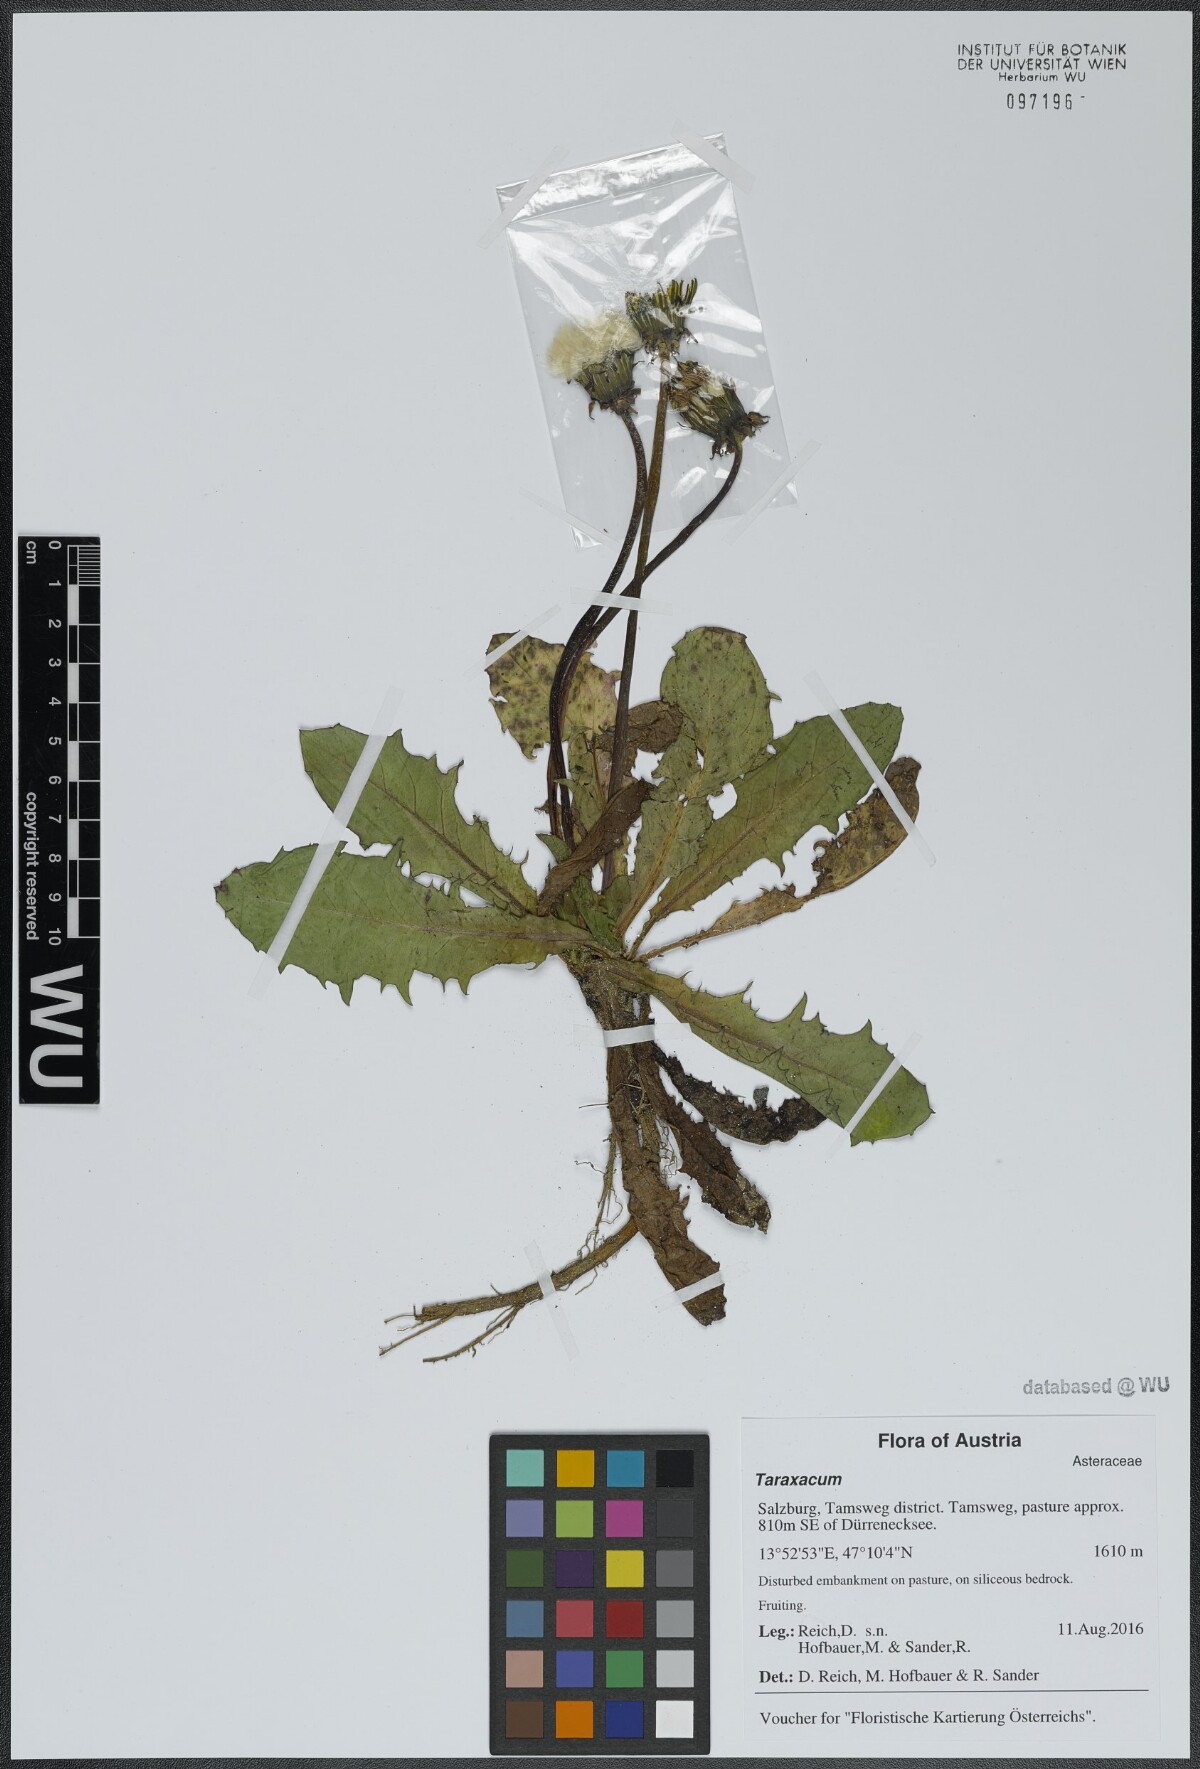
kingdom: Plantae
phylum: Tracheophyta
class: Magnoliopsida
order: Asterales
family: Asteraceae
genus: Taraxacum
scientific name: Taraxacum
